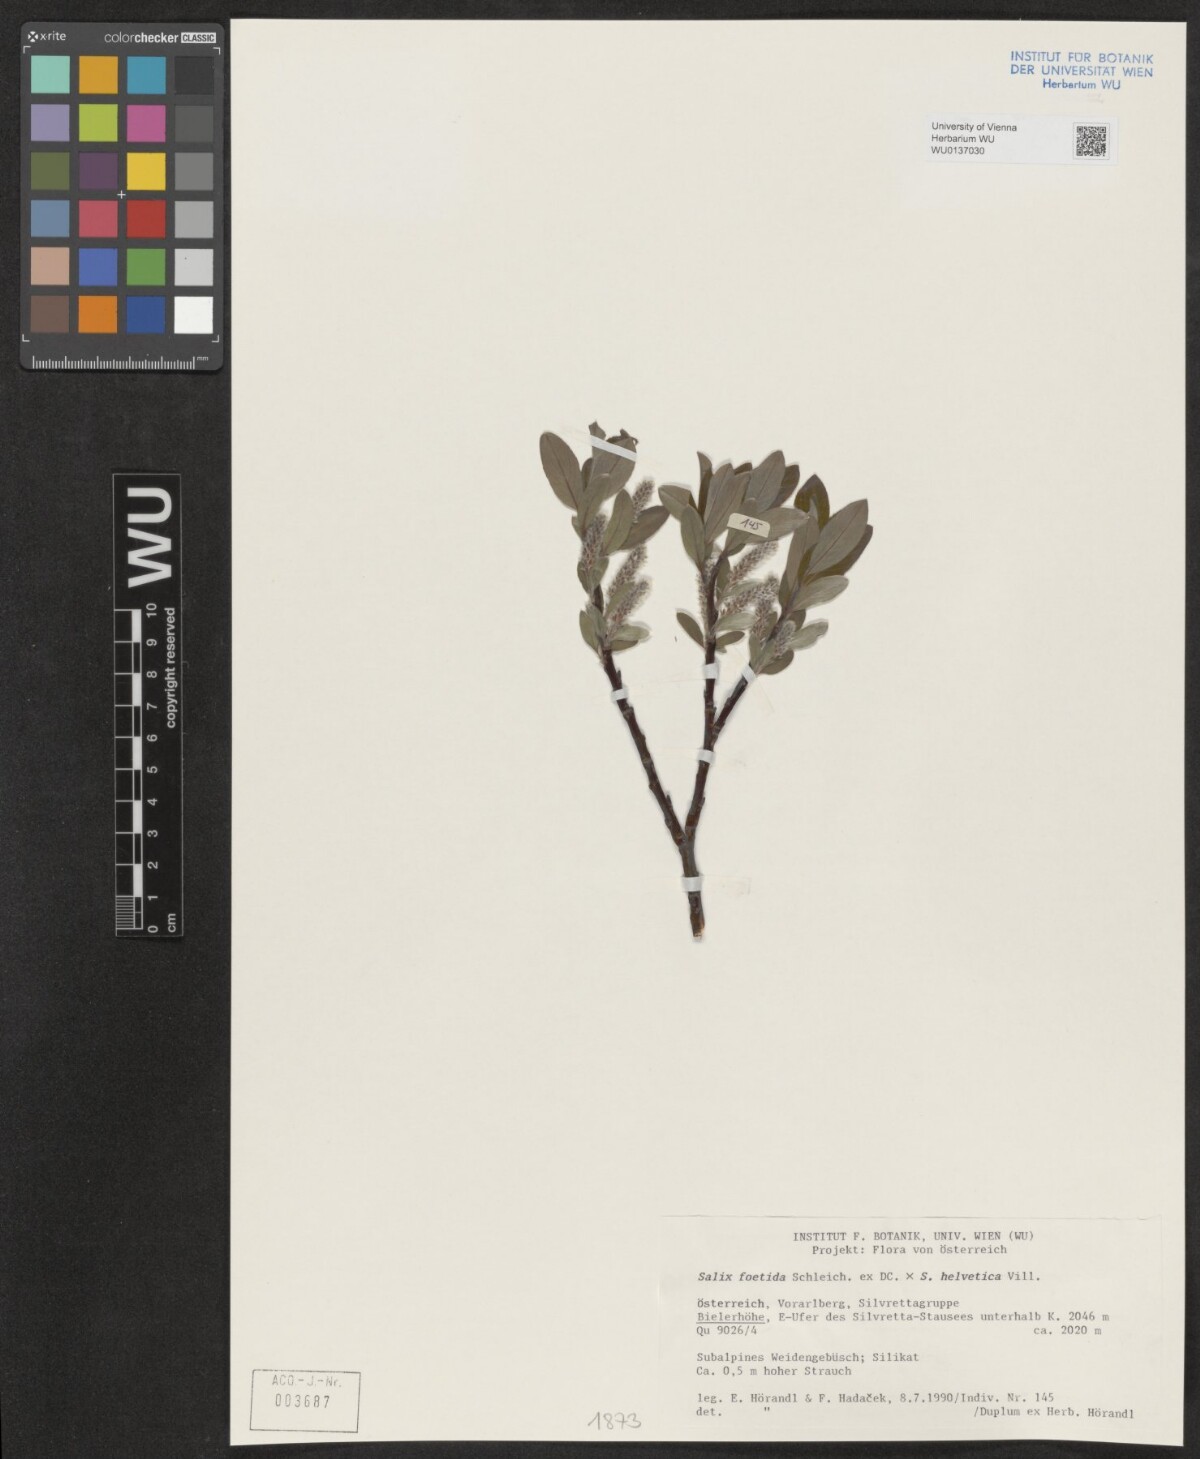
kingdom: Plantae
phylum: Tracheophyta
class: Magnoliopsida
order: Malpighiales
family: Salicaceae
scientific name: Salicaceae
